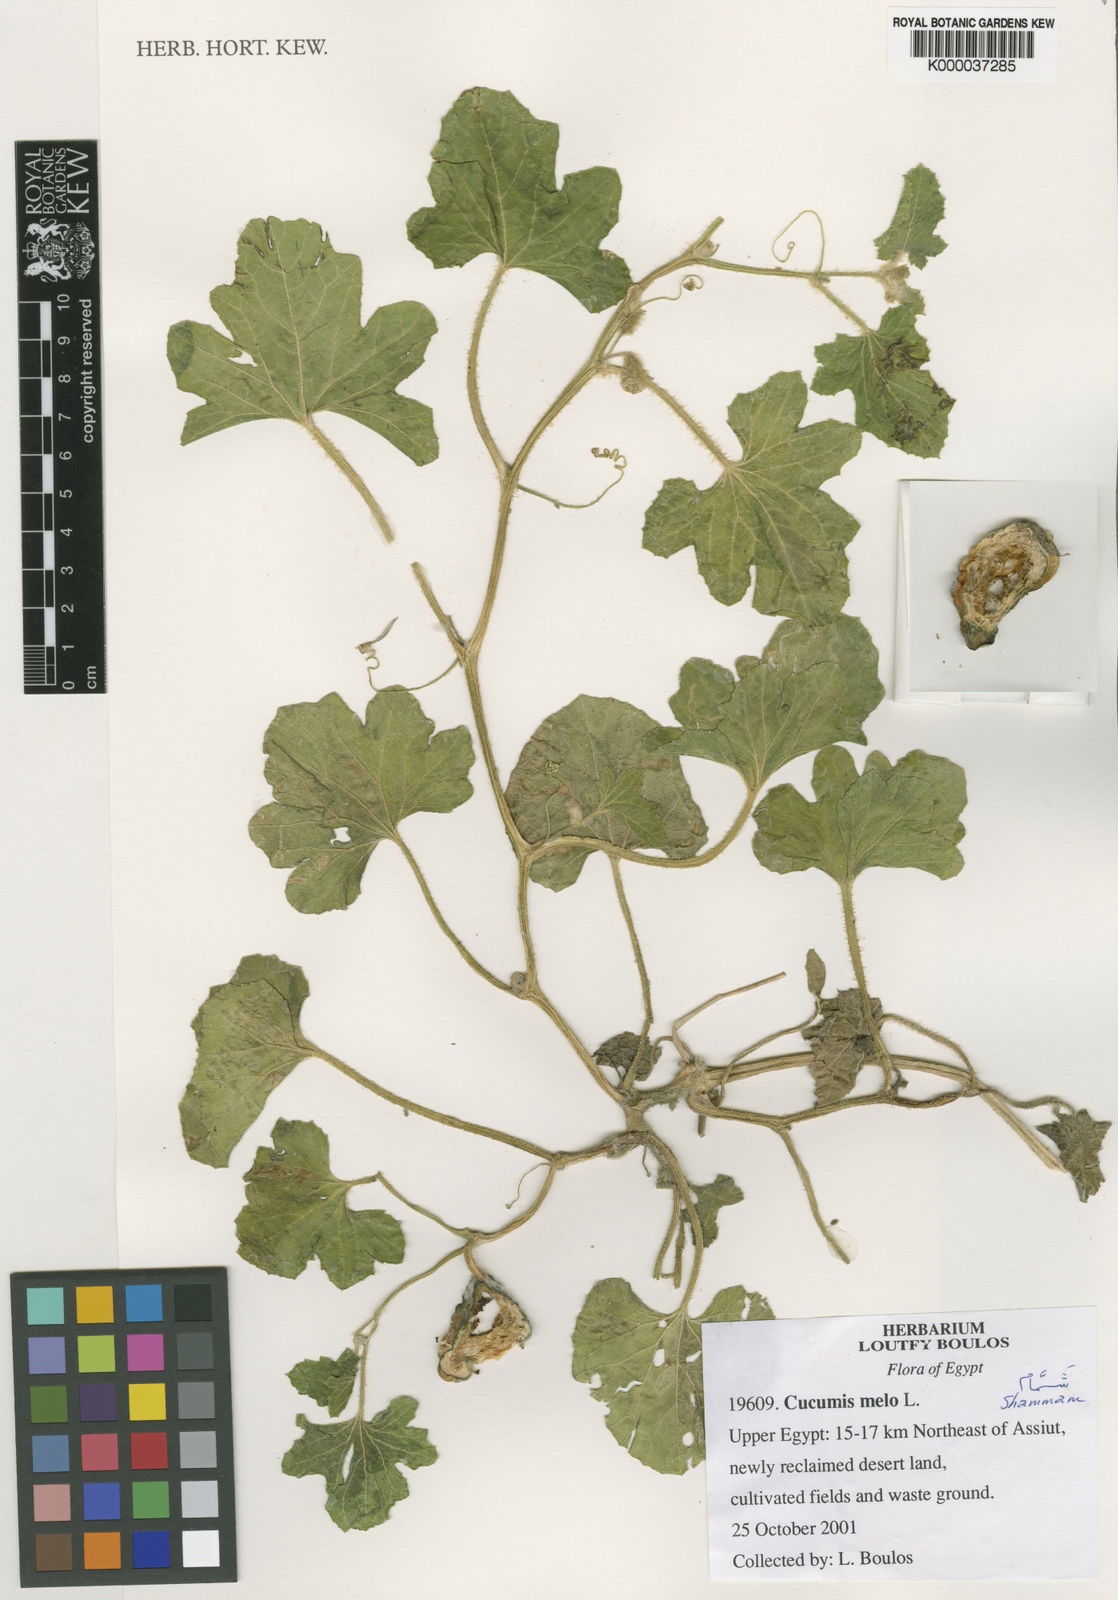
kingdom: Plantae
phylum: Tracheophyta
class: Magnoliopsida
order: Cucurbitales
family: Cucurbitaceae
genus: Cucumis
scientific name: Cucumis melo
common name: Melon
